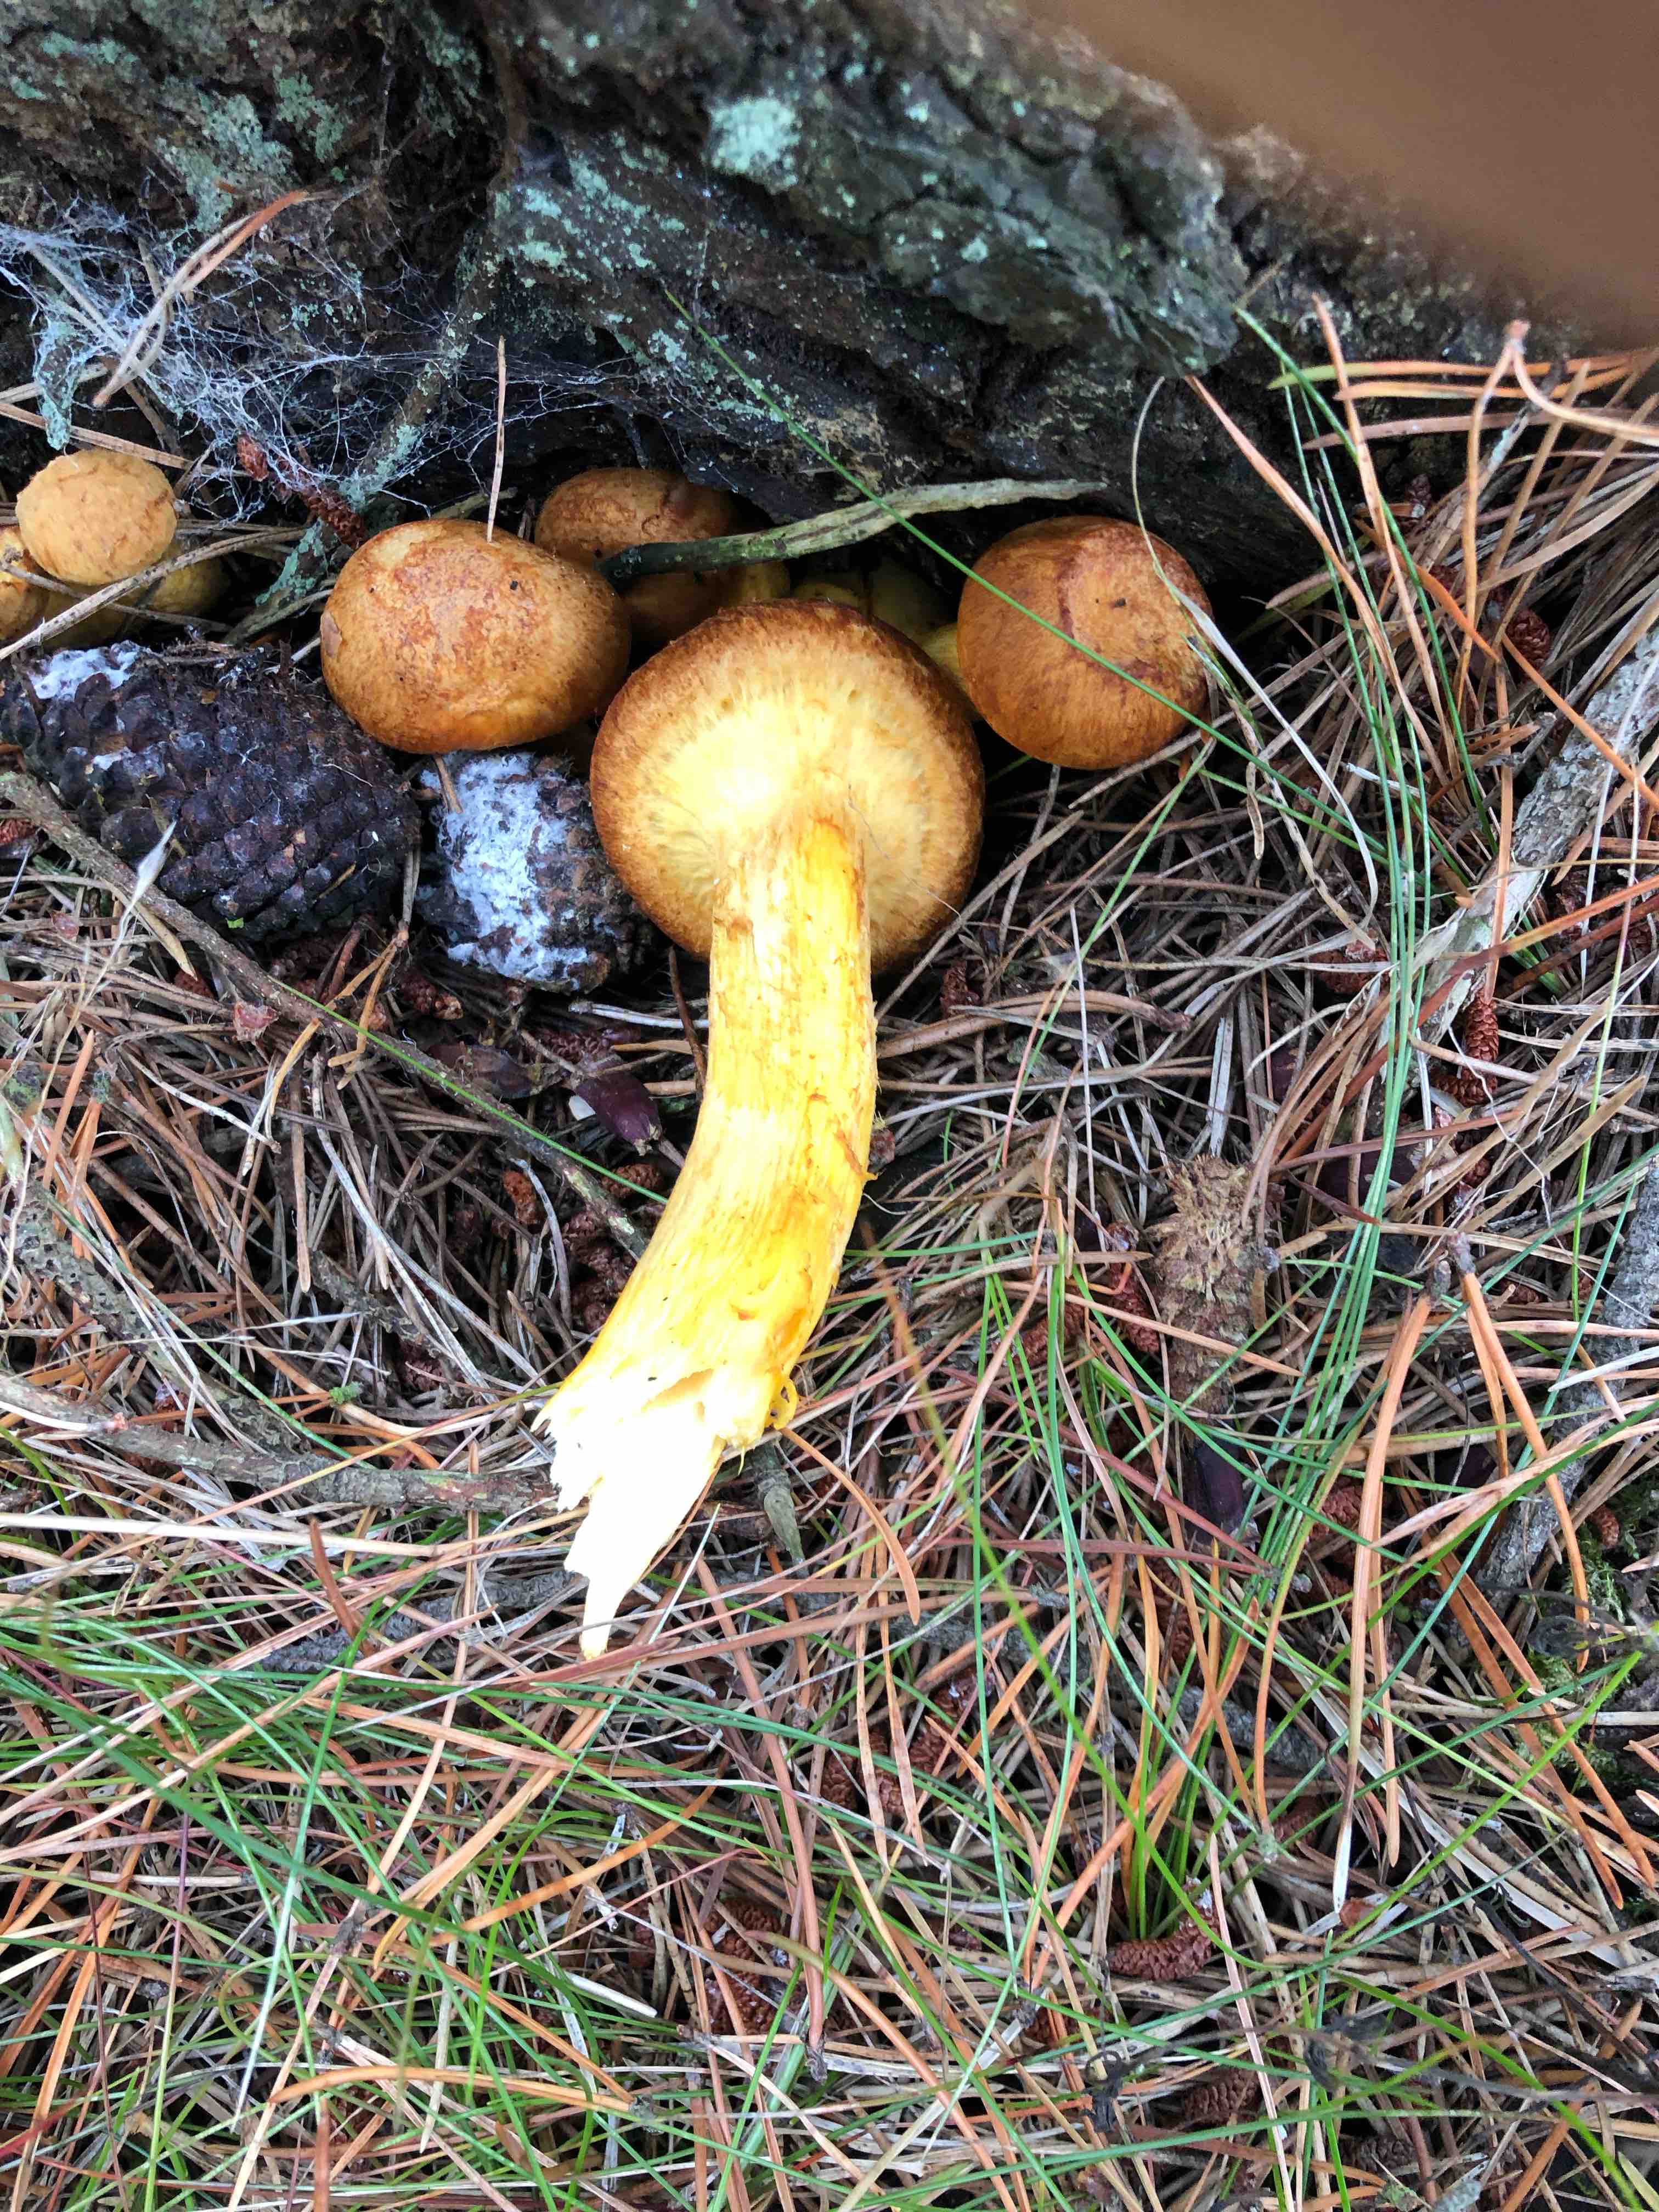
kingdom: Fungi
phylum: Basidiomycota
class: Agaricomycetes
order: Agaricales
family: Hymenogastraceae
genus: Gymnopilus
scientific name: Gymnopilus spectabilis
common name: fibret flammehat
